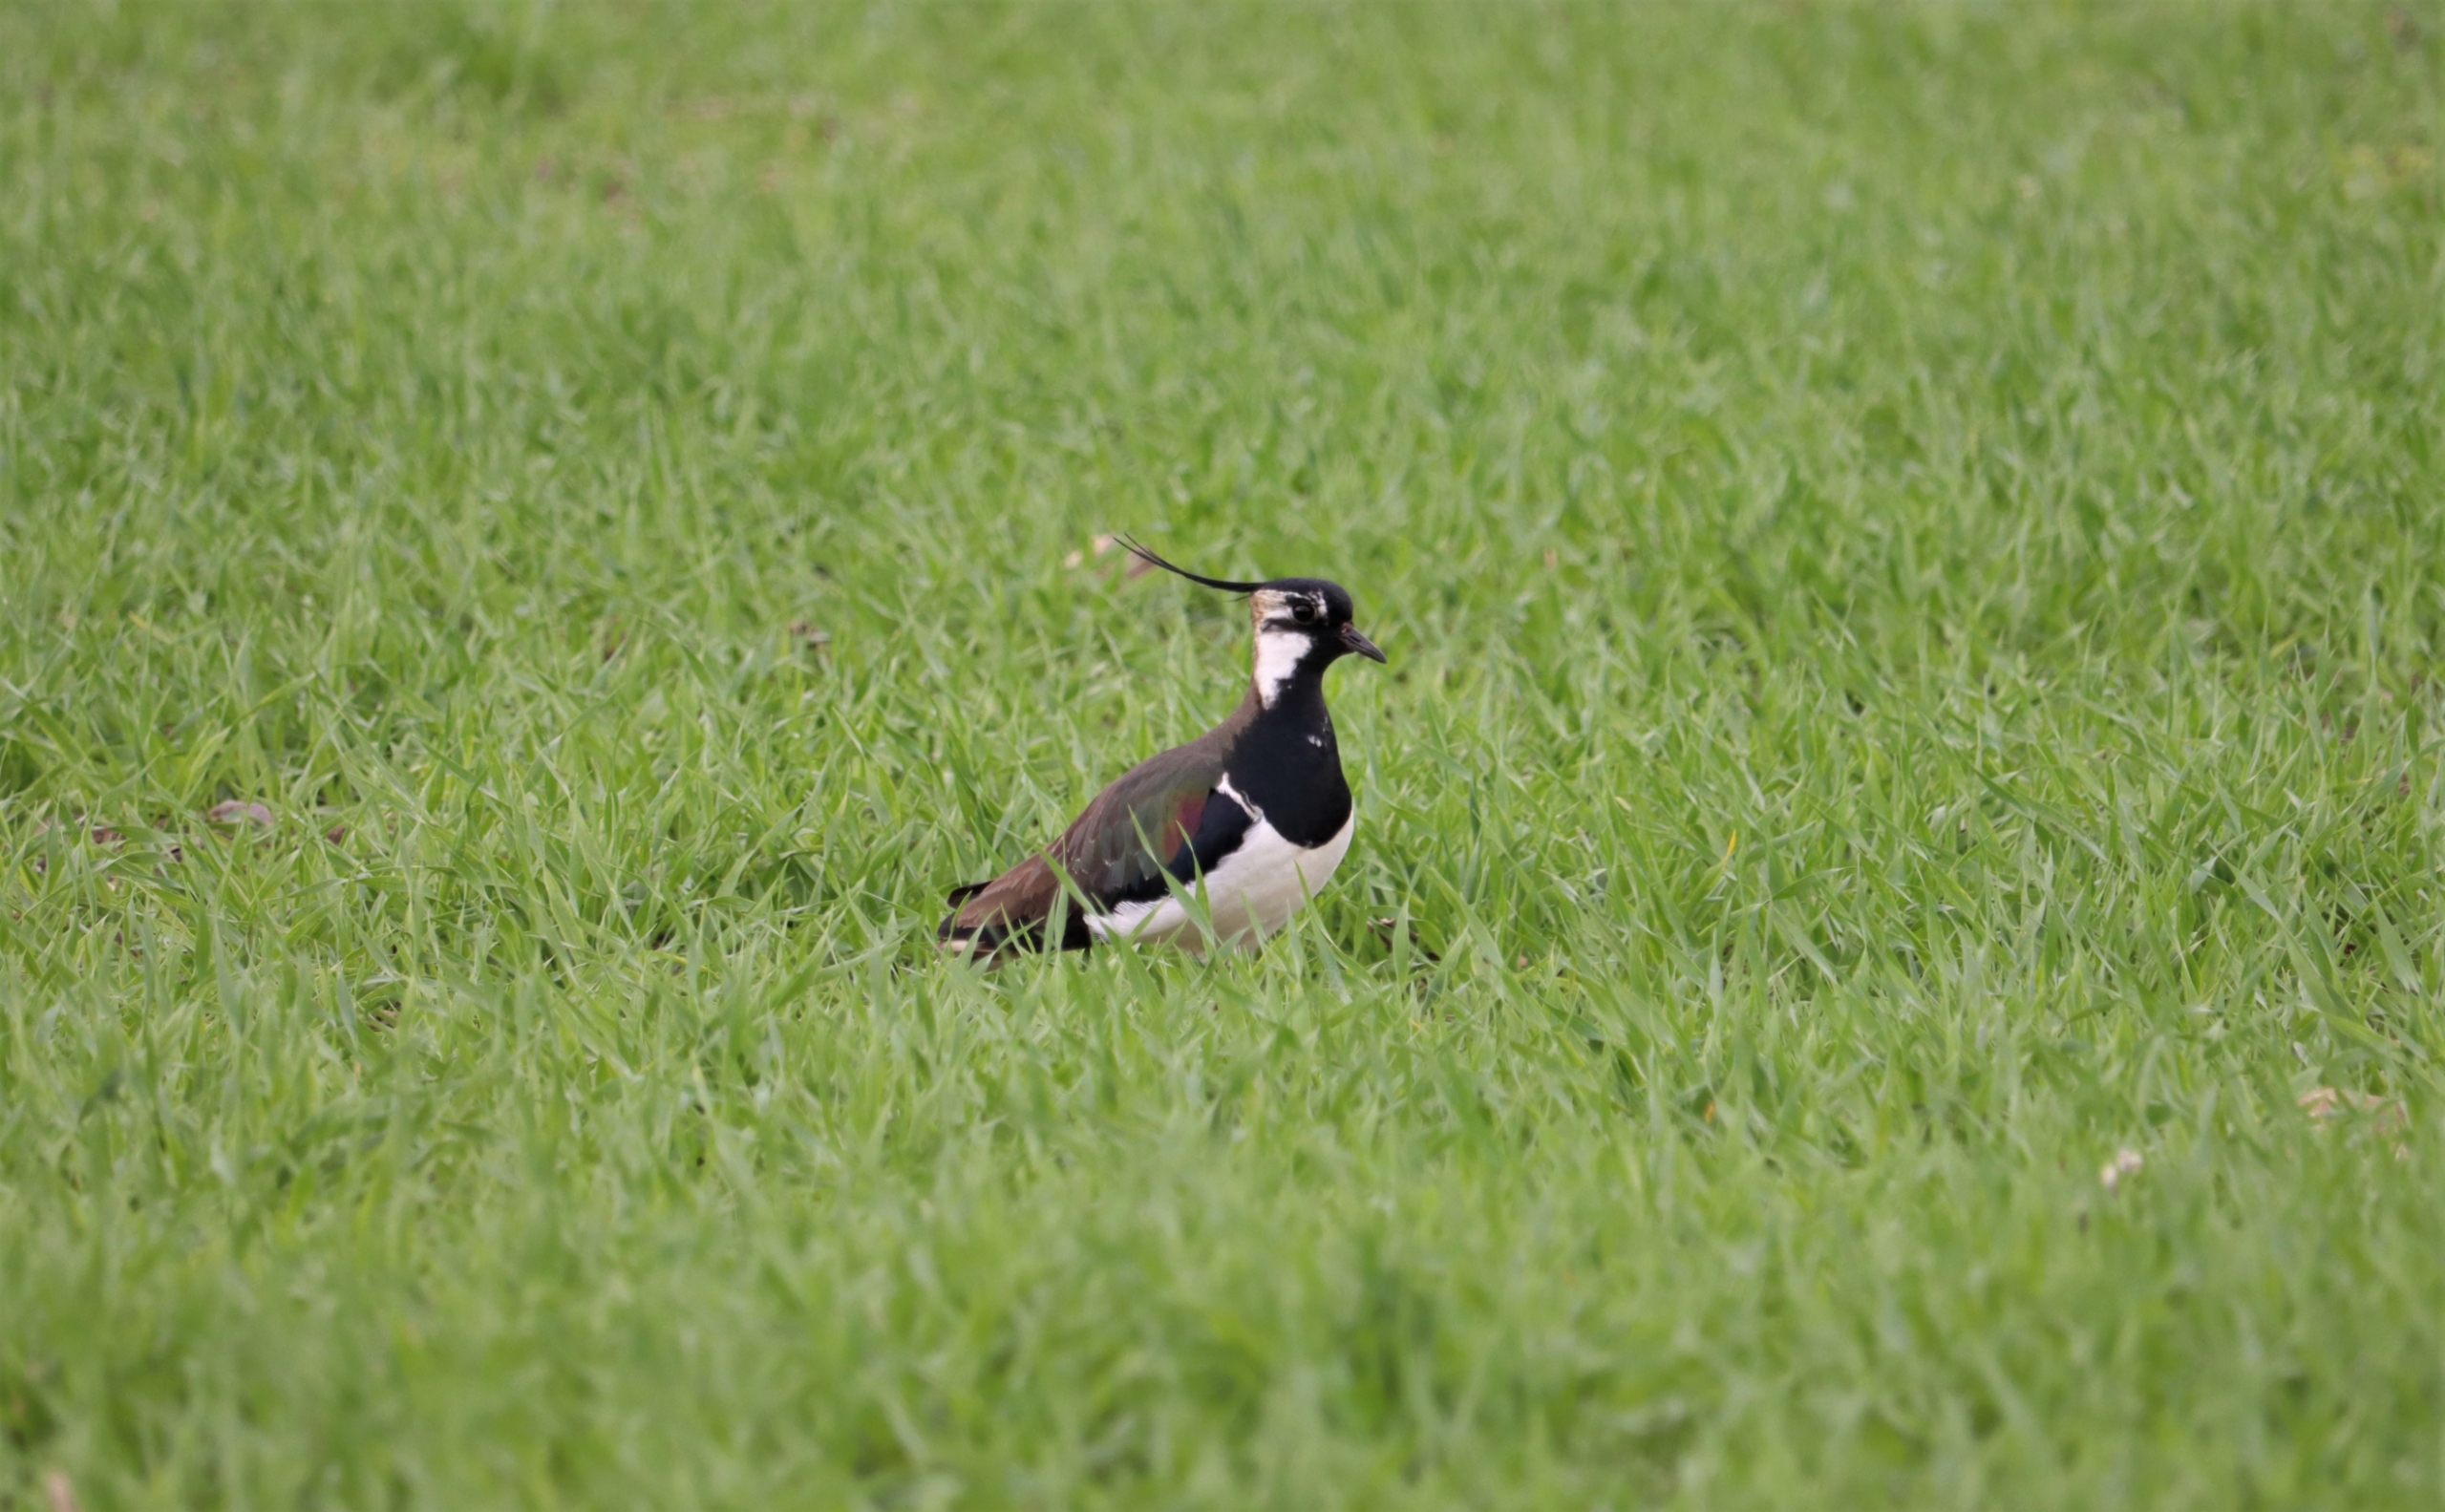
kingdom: Animalia
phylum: Chordata
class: Aves
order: Charadriiformes
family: Charadriidae
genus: Vanellus
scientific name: Vanellus vanellus
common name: Vibe
